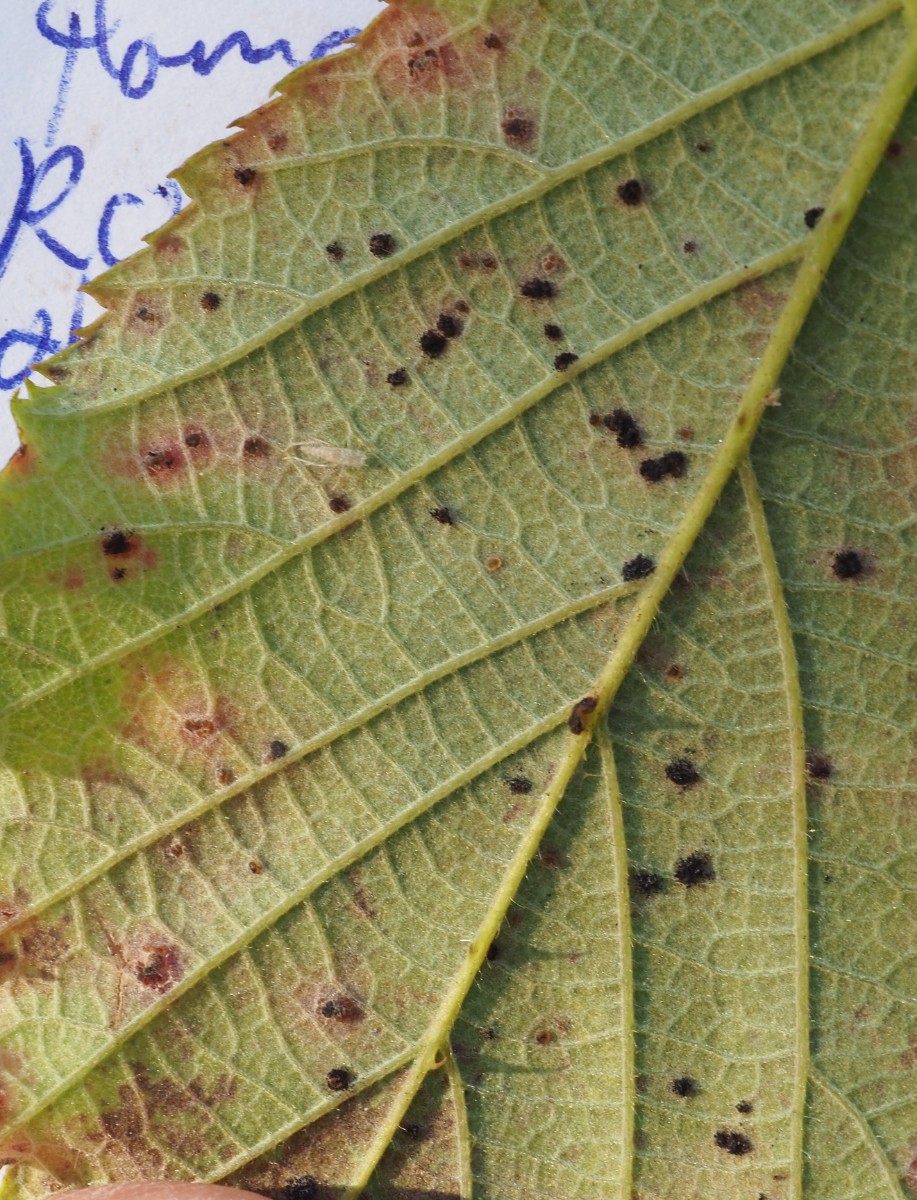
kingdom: Fungi
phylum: Basidiomycota
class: Pucciniomycetes
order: Pucciniales
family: Phragmidiaceae
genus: Phragmidium
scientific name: Phragmidium violaceum
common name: violet flercellerust
